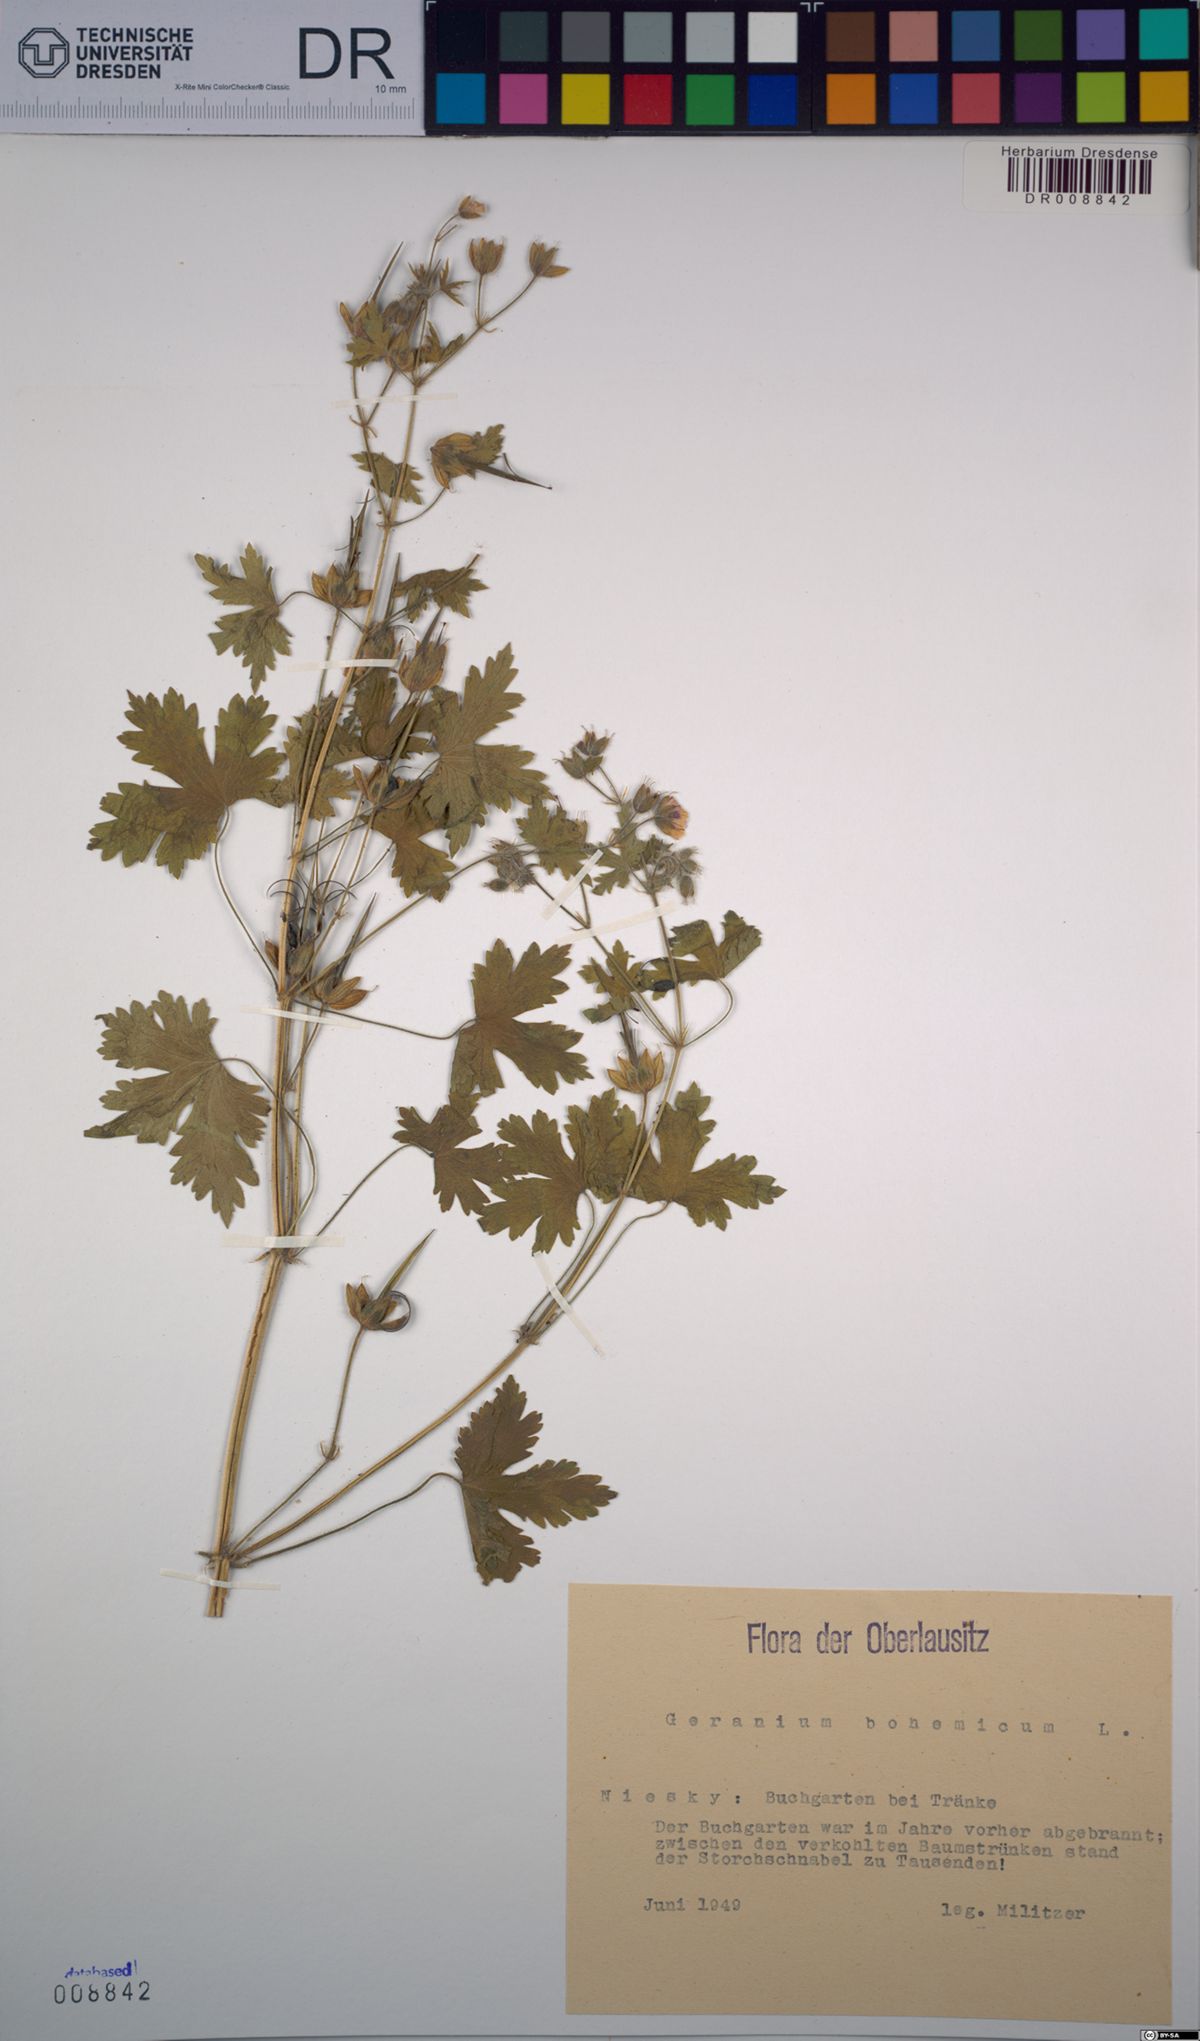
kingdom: Plantae
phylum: Tracheophyta
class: Magnoliopsida
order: Geraniales
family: Geraniaceae
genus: Geranium
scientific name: Geranium bohemicum
